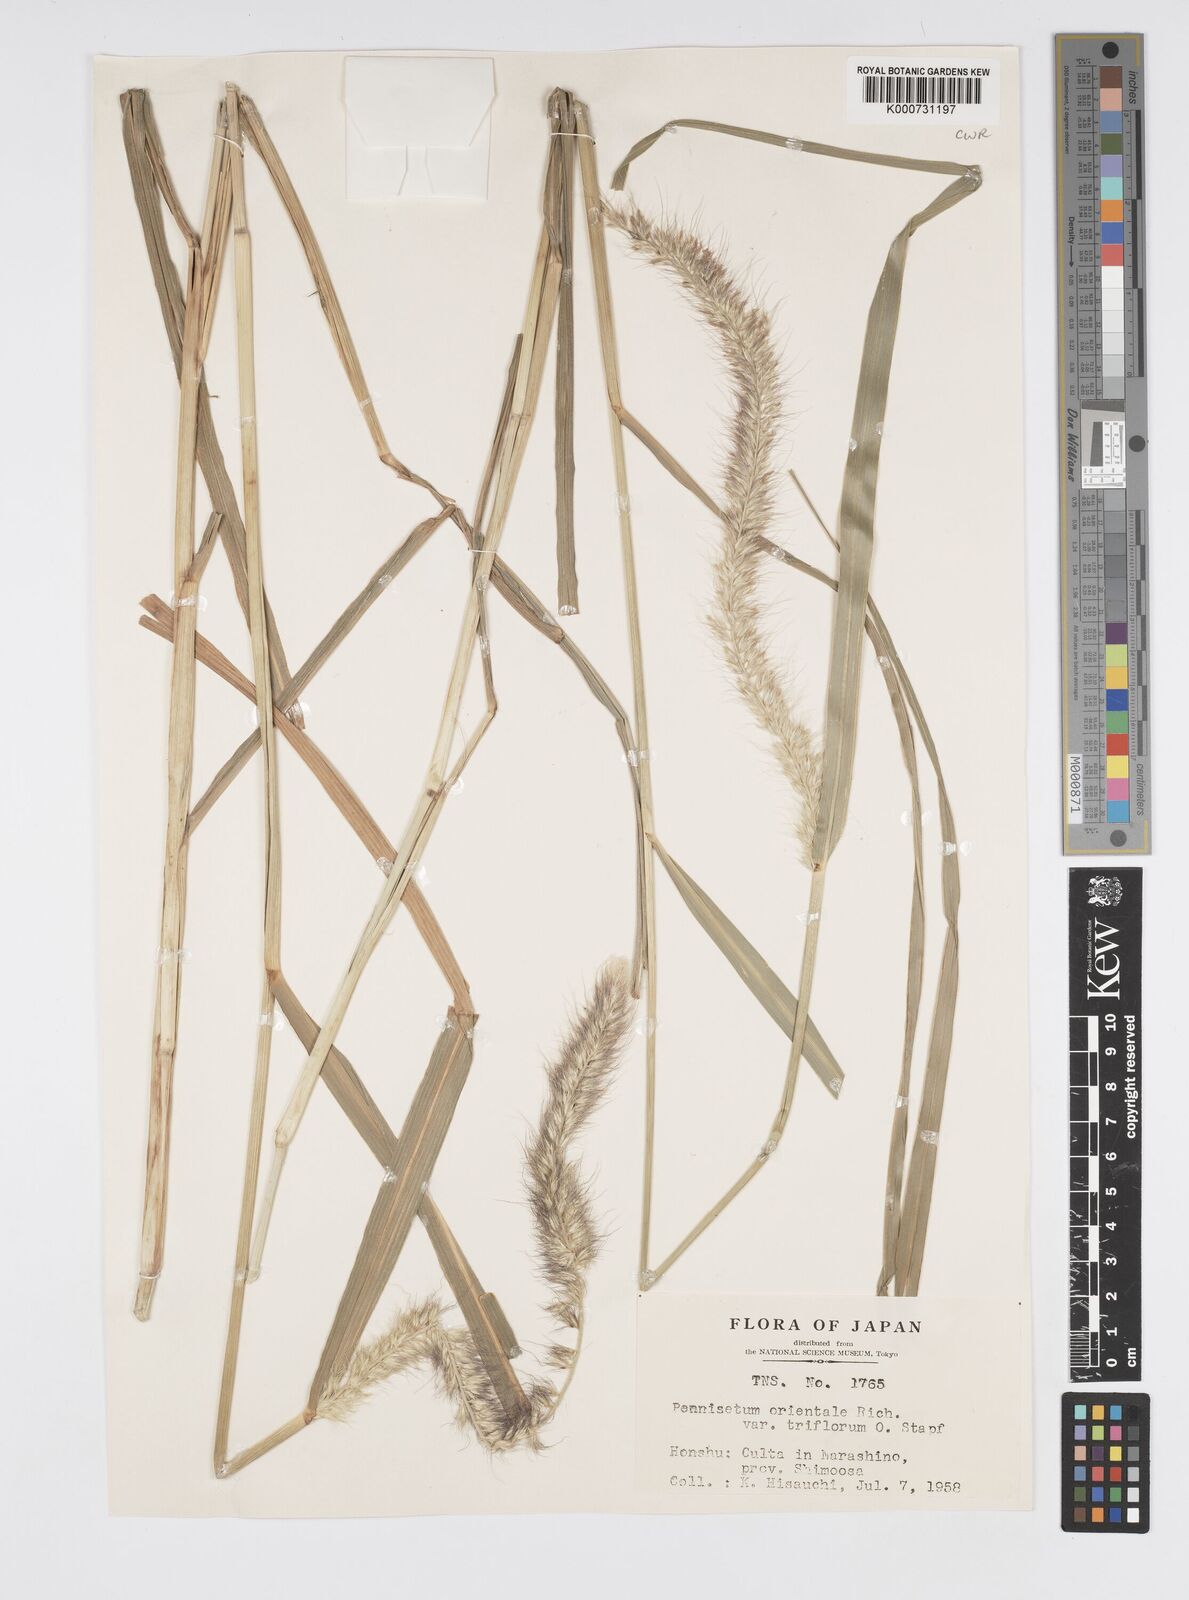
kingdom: Plantae
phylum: Tracheophyta
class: Liliopsida
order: Poales
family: Poaceae
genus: Cenchrus
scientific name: Cenchrus orientalis
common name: Oriental fountain grass
